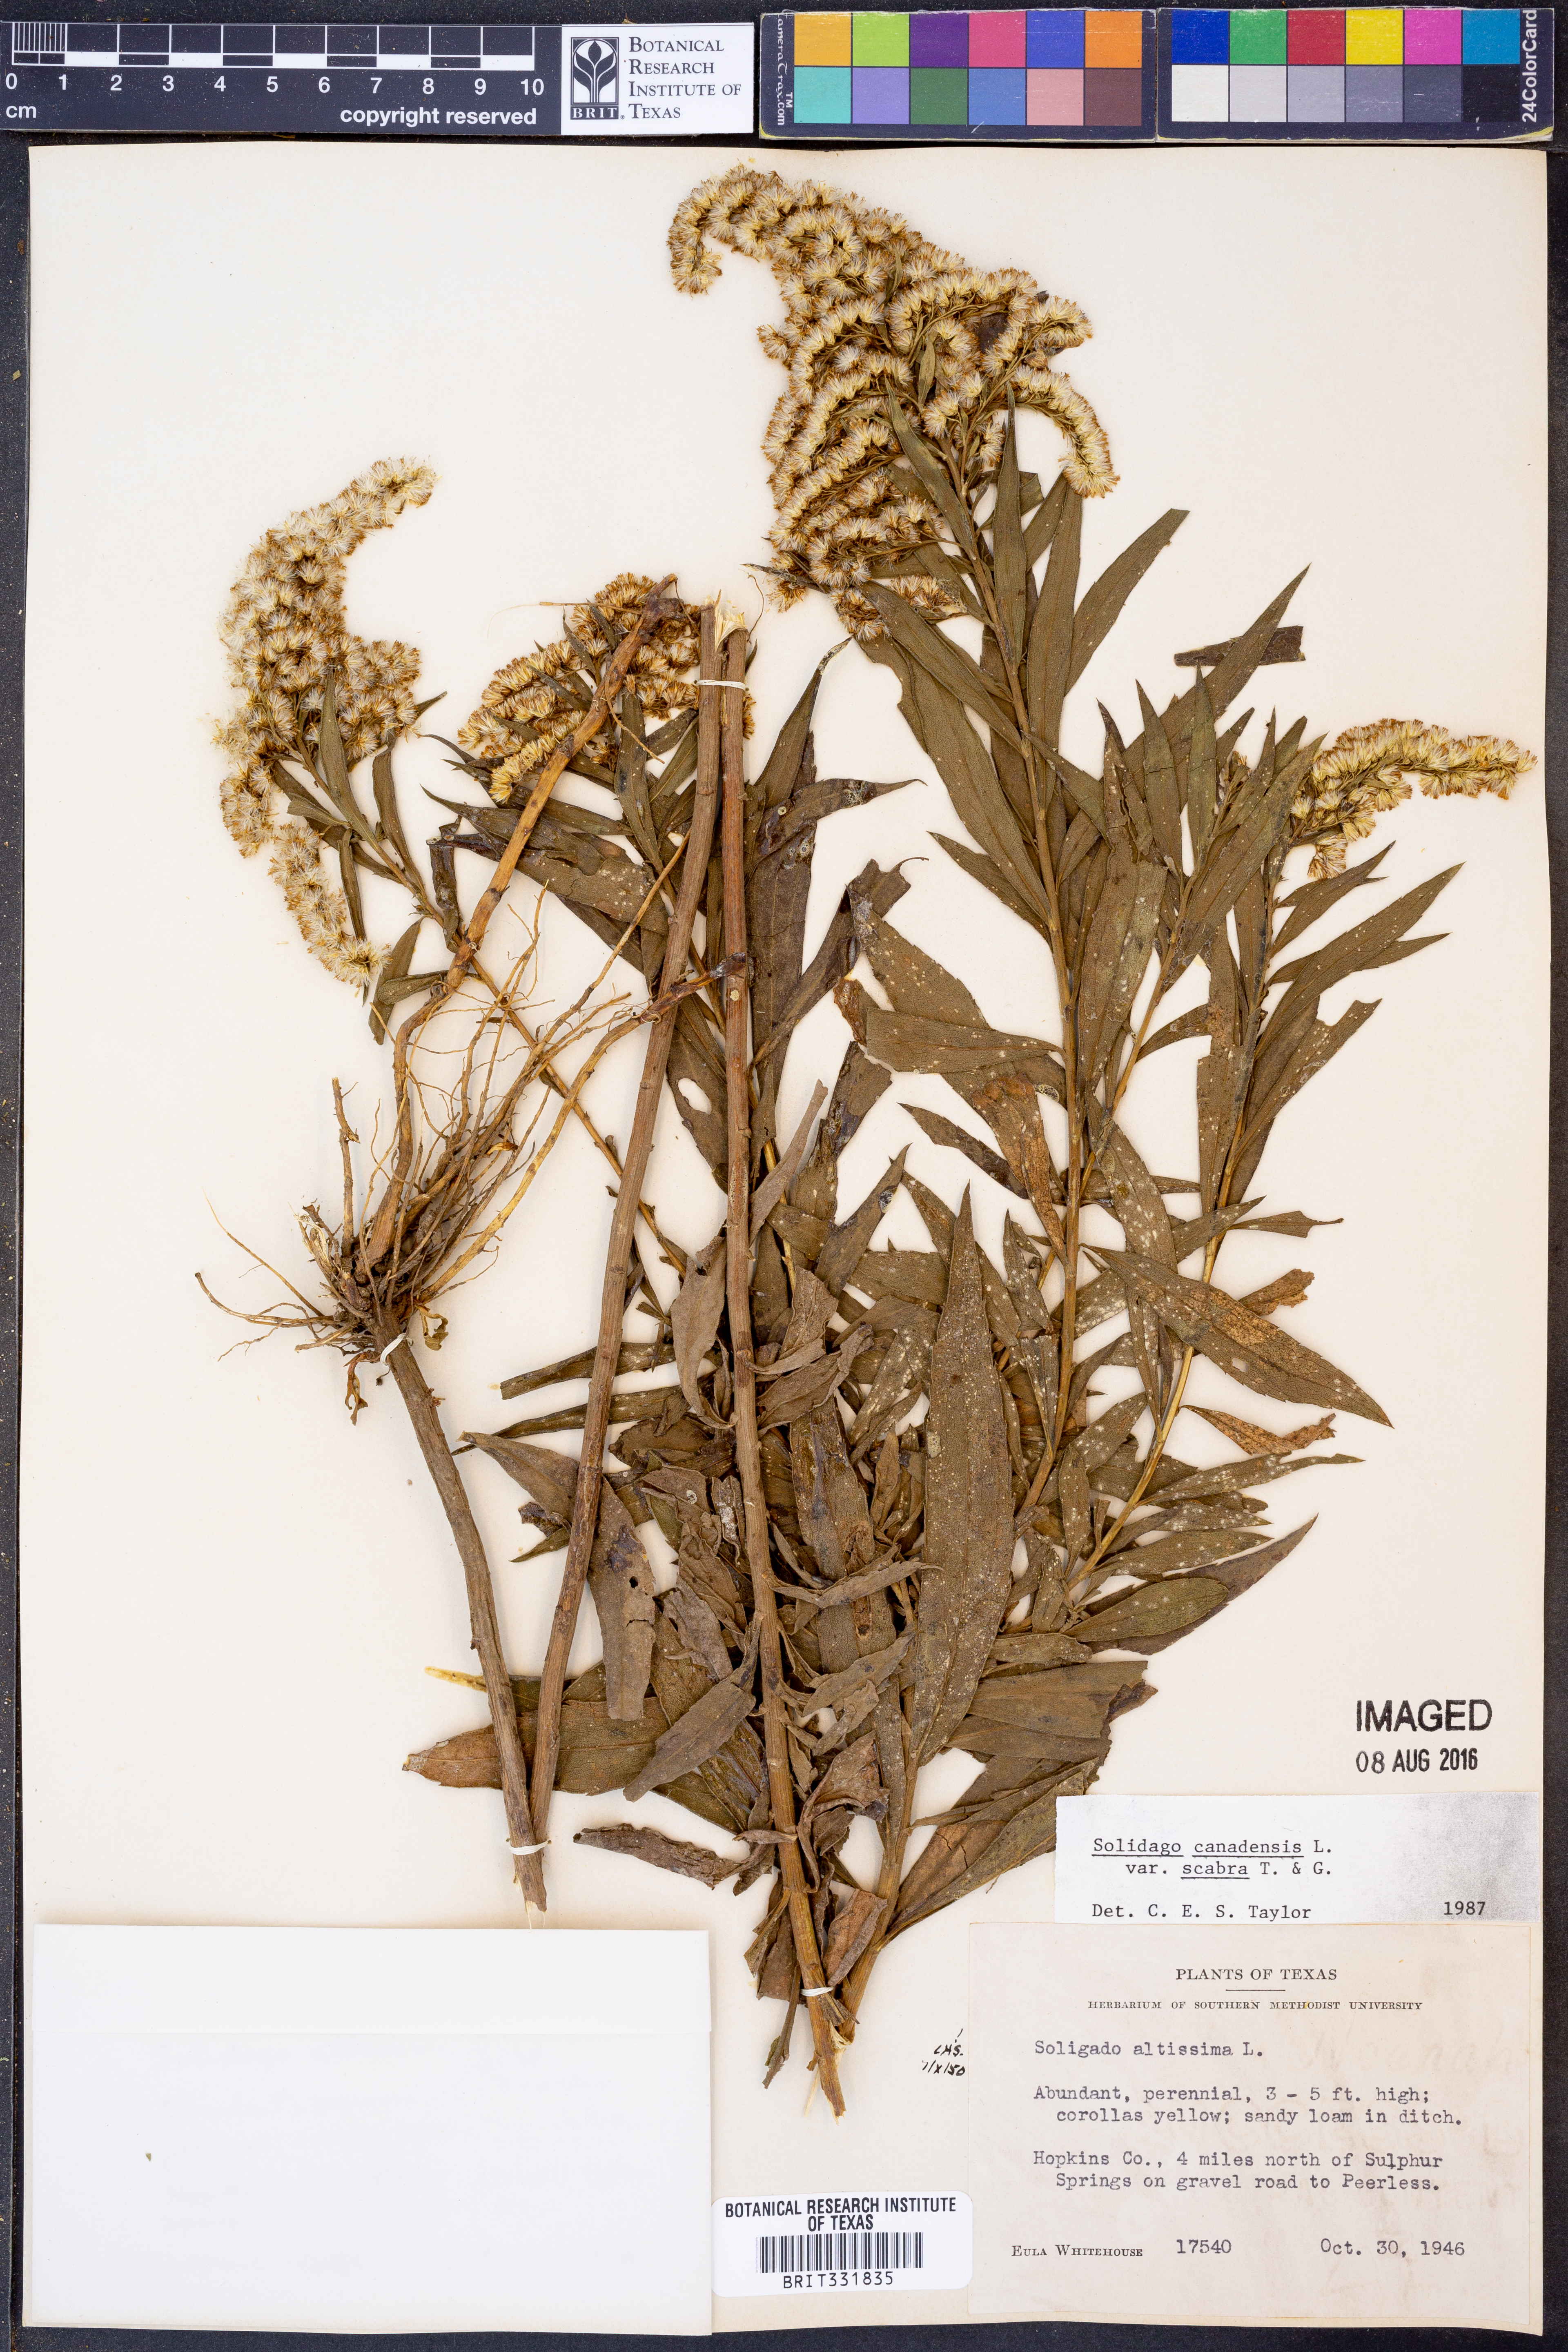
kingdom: Plantae
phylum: Tracheophyta
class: Magnoliopsida
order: Asterales
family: Asteraceae
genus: Solidago
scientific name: Solidago altissima
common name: Late goldenrod
